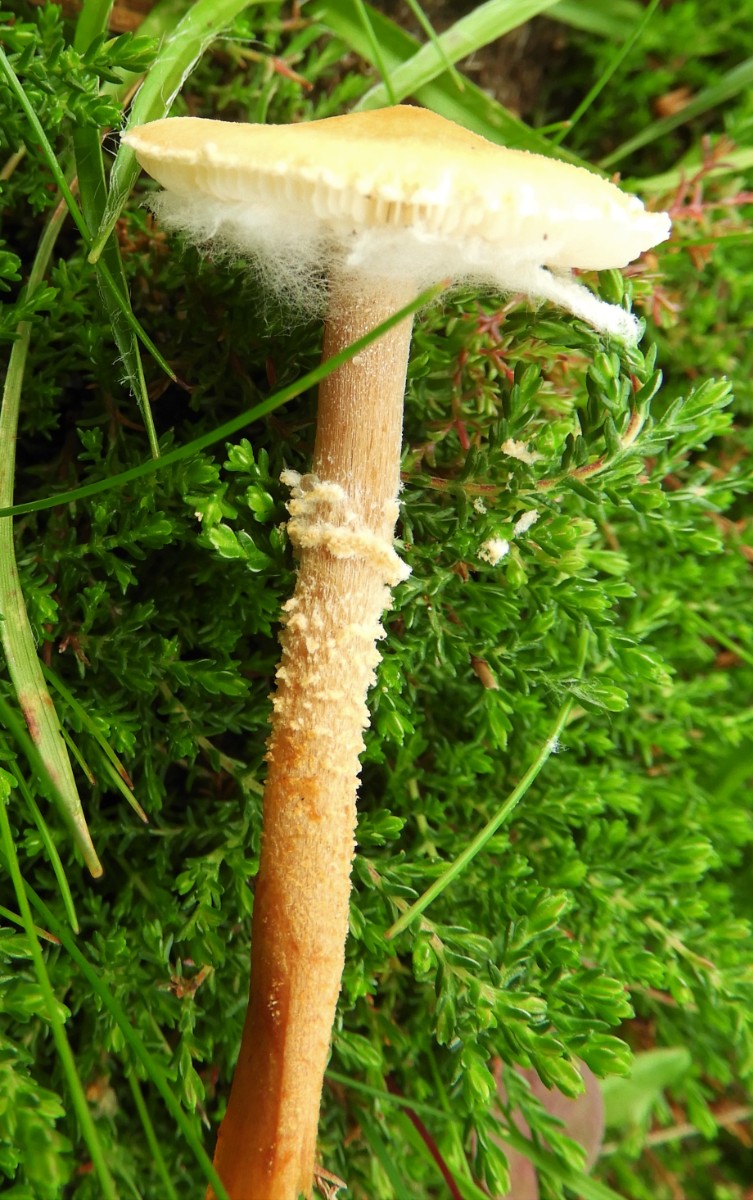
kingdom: Fungi
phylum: Basidiomycota
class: Agaricomycetes
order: Agaricales
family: Tricholomataceae
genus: Cystoderma
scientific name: Cystoderma amianthinum
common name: okkergul grynhat
